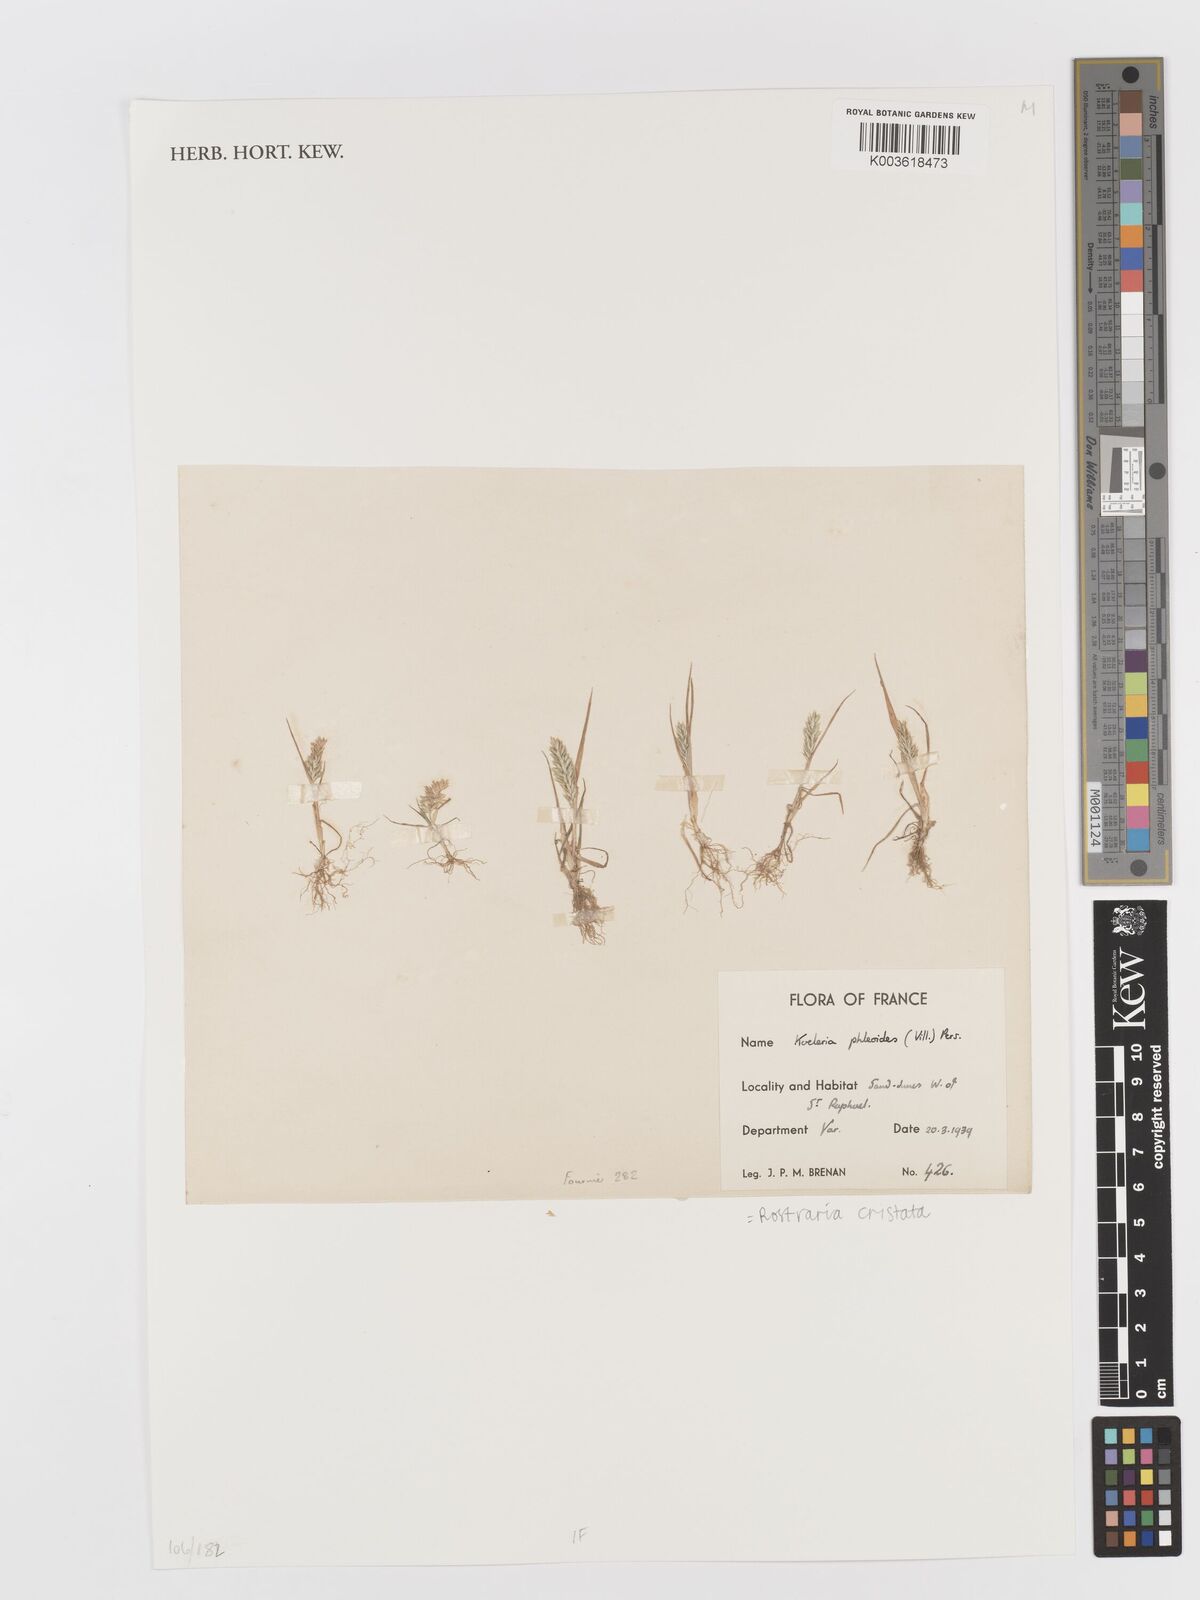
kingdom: Plantae
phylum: Tracheophyta
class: Liliopsida
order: Poales
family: Poaceae
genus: Rostraria
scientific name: Rostraria cristata
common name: Mediterranean hair-grass
